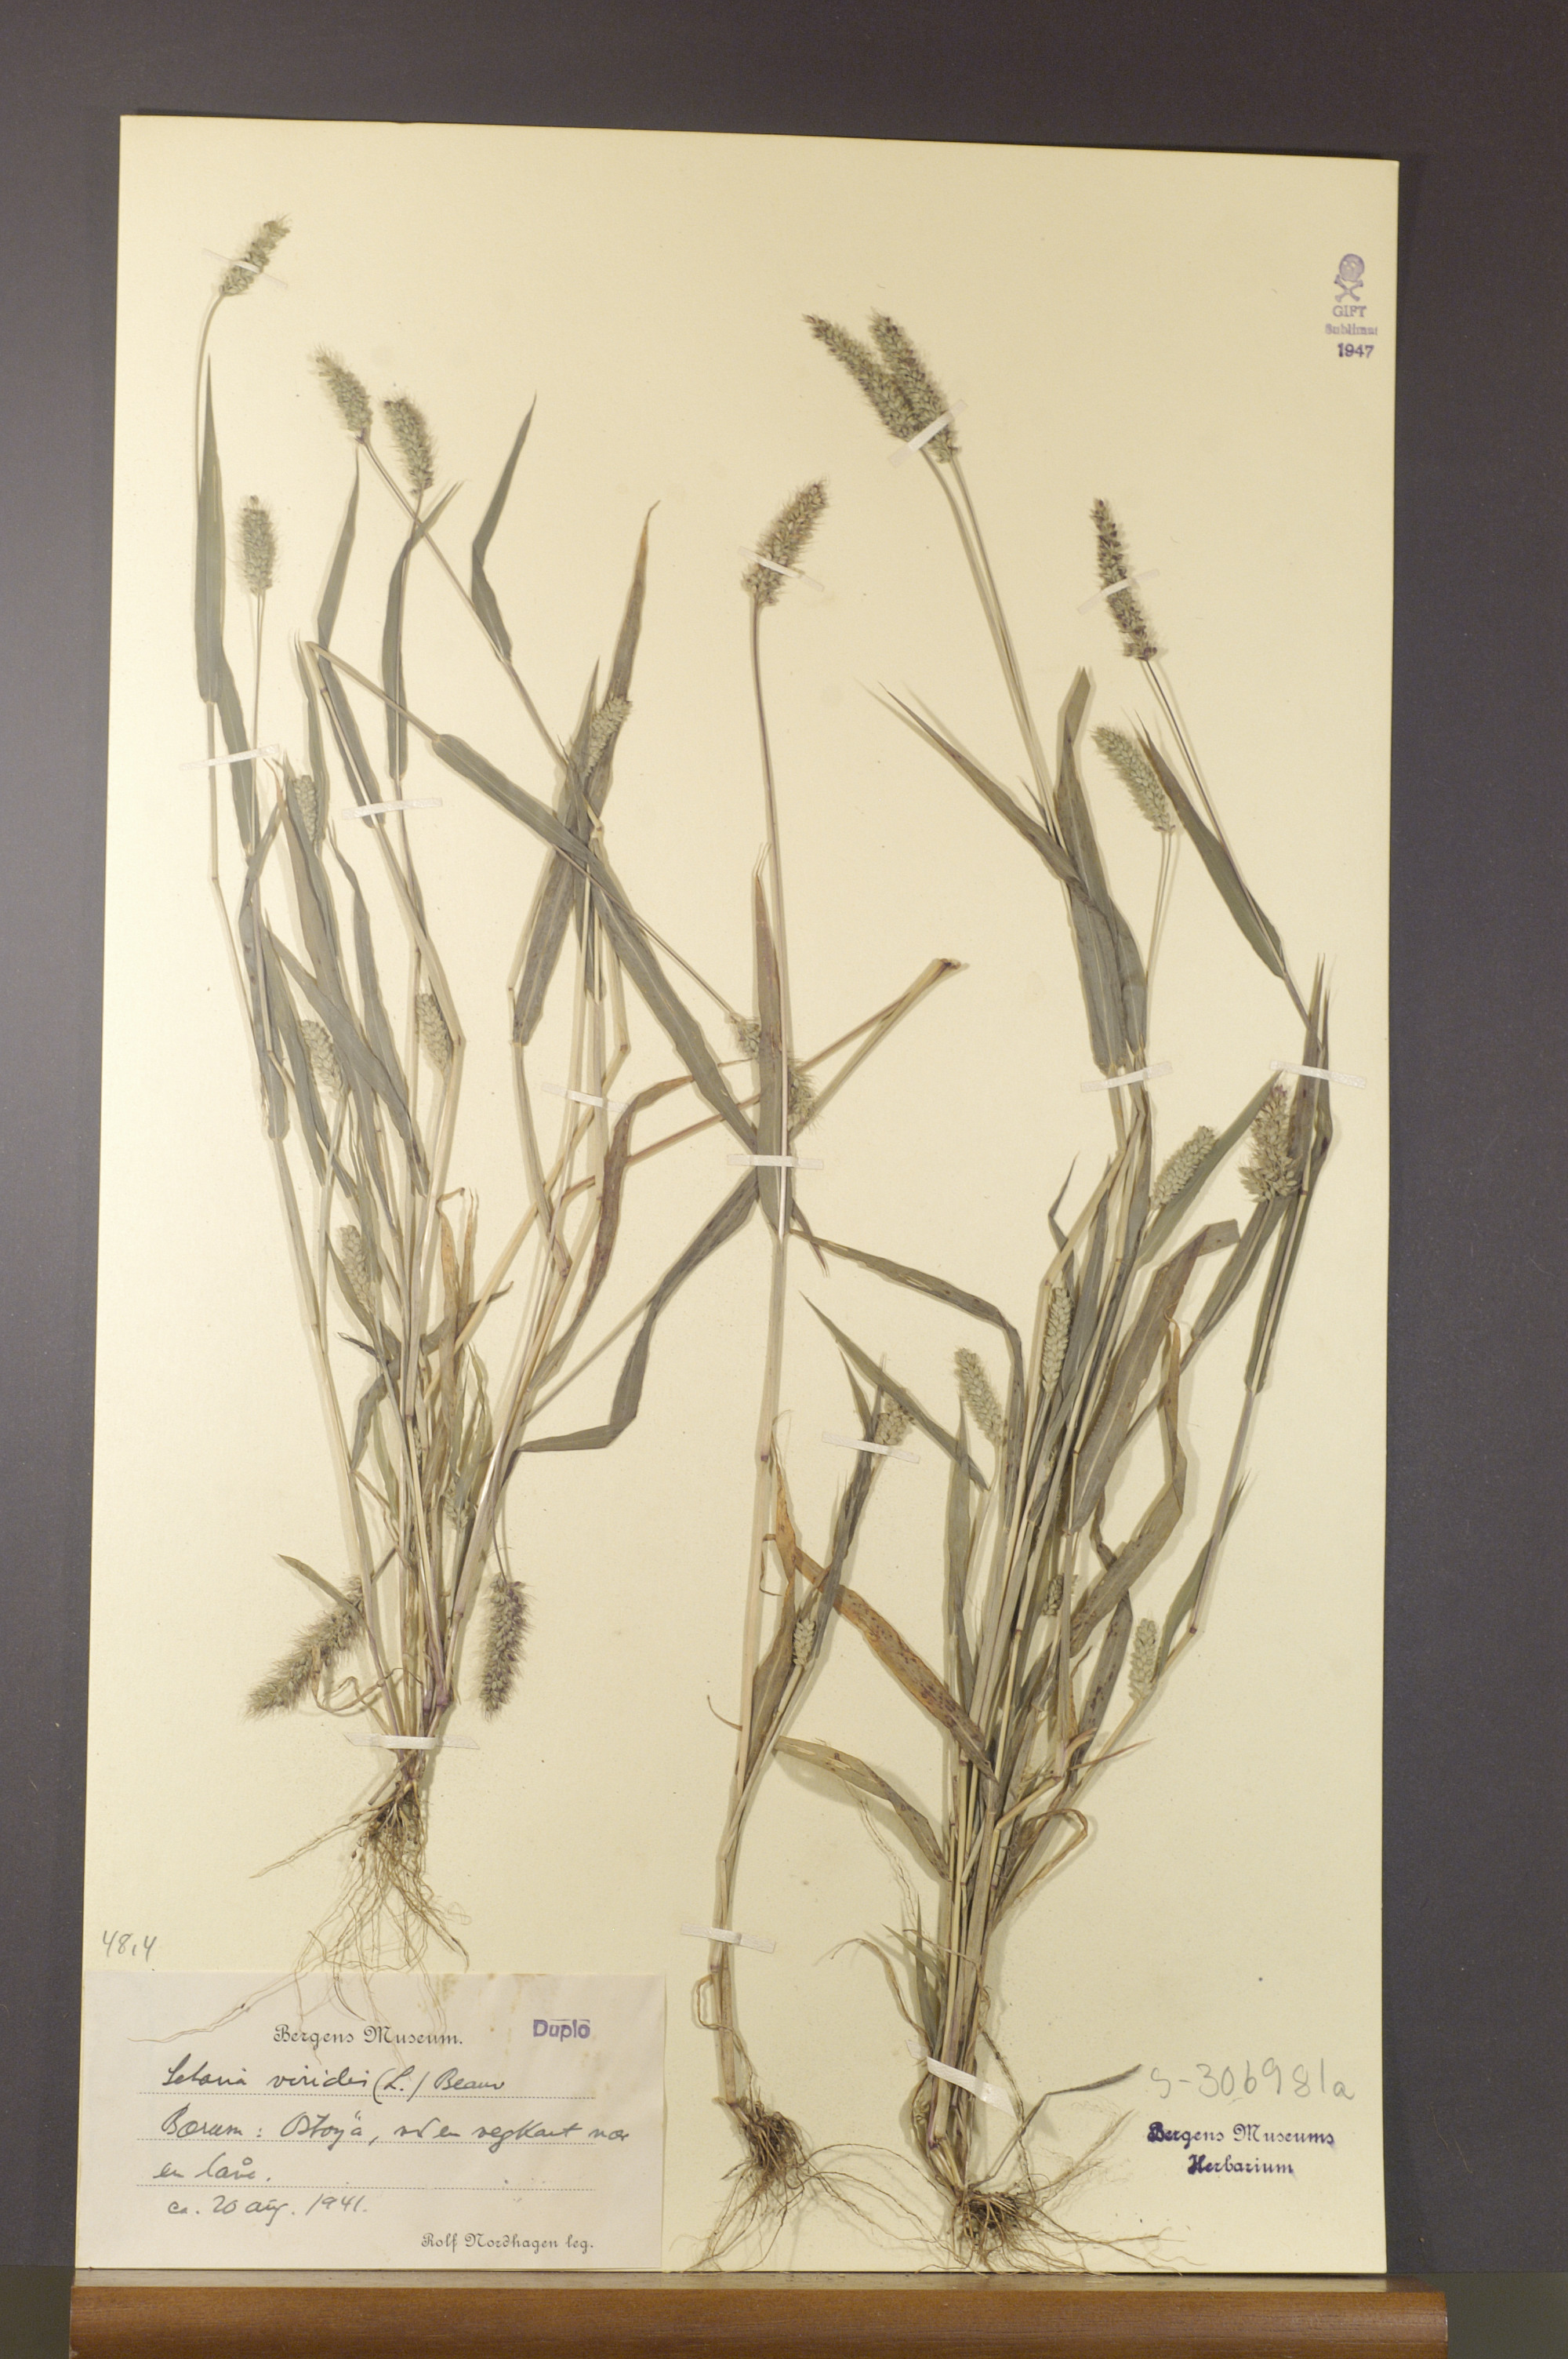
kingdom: Plantae
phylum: Tracheophyta
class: Liliopsida
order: Poales
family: Poaceae
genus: Setaria
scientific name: Setaria viridis
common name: Green bristlegrass
